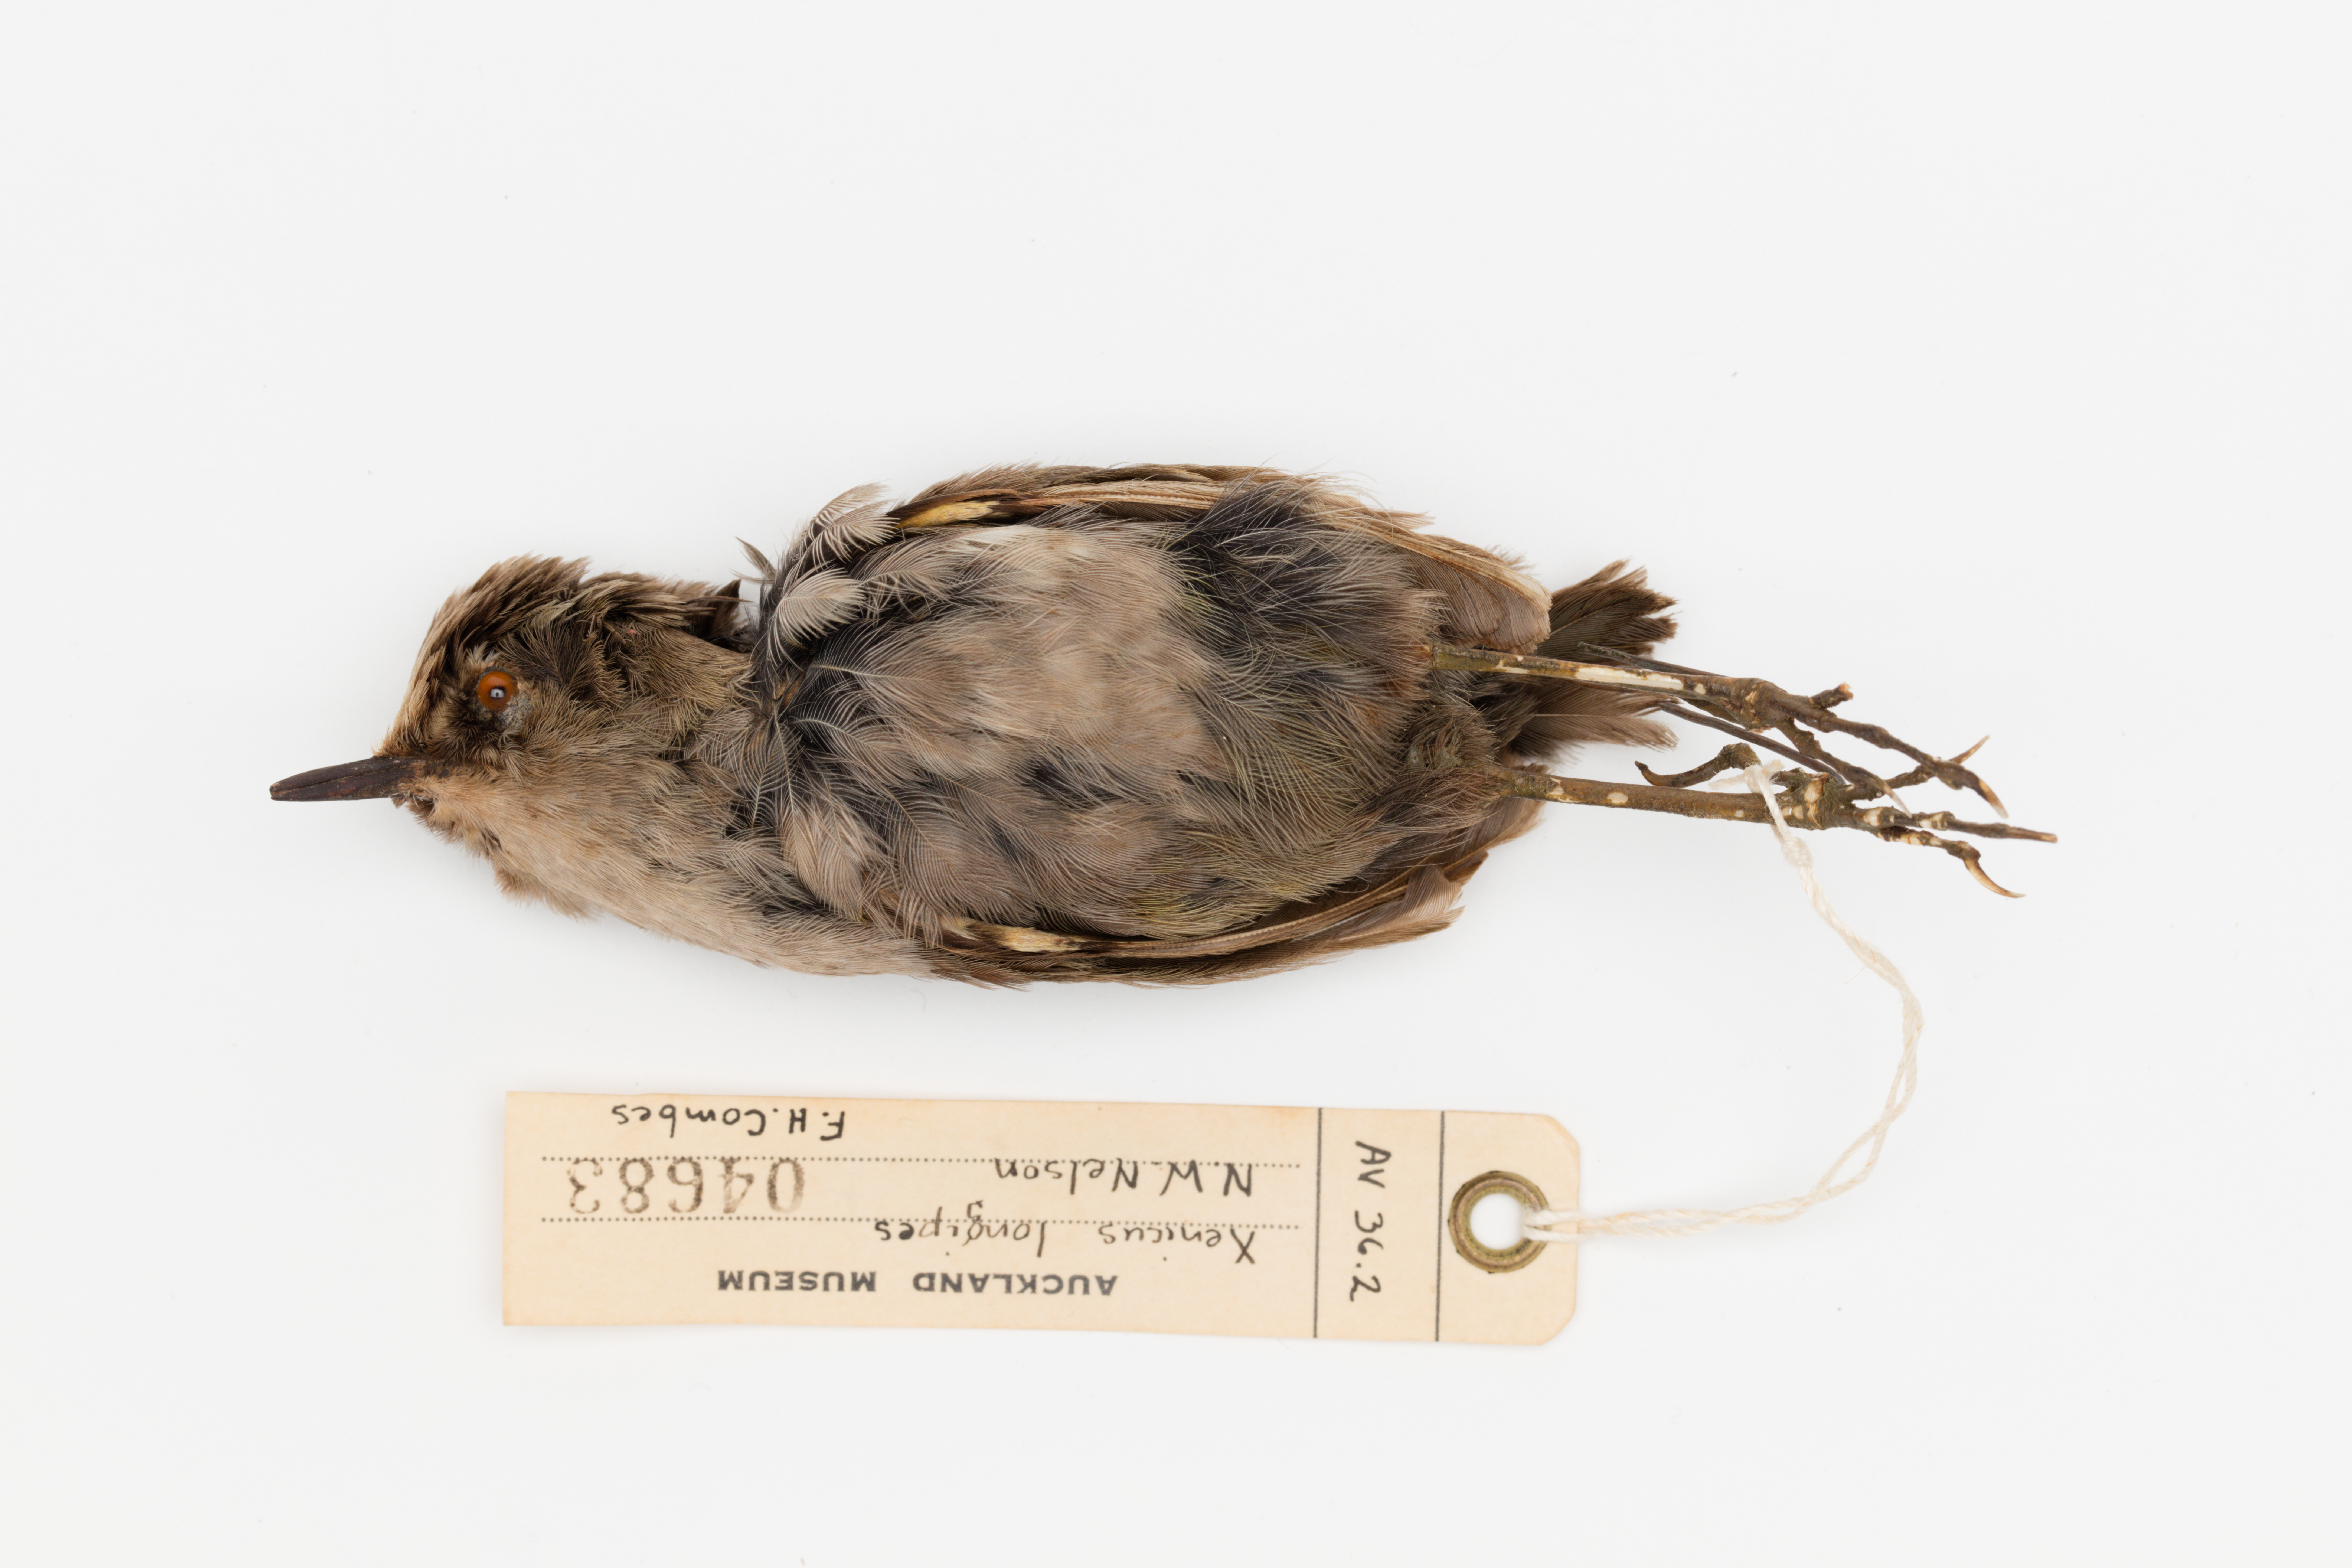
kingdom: Animalia
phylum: Chordata
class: Aves
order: Passeriformes
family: Acanthisittidae
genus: Xenicus
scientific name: Xenicus longipes
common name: Bushwren
